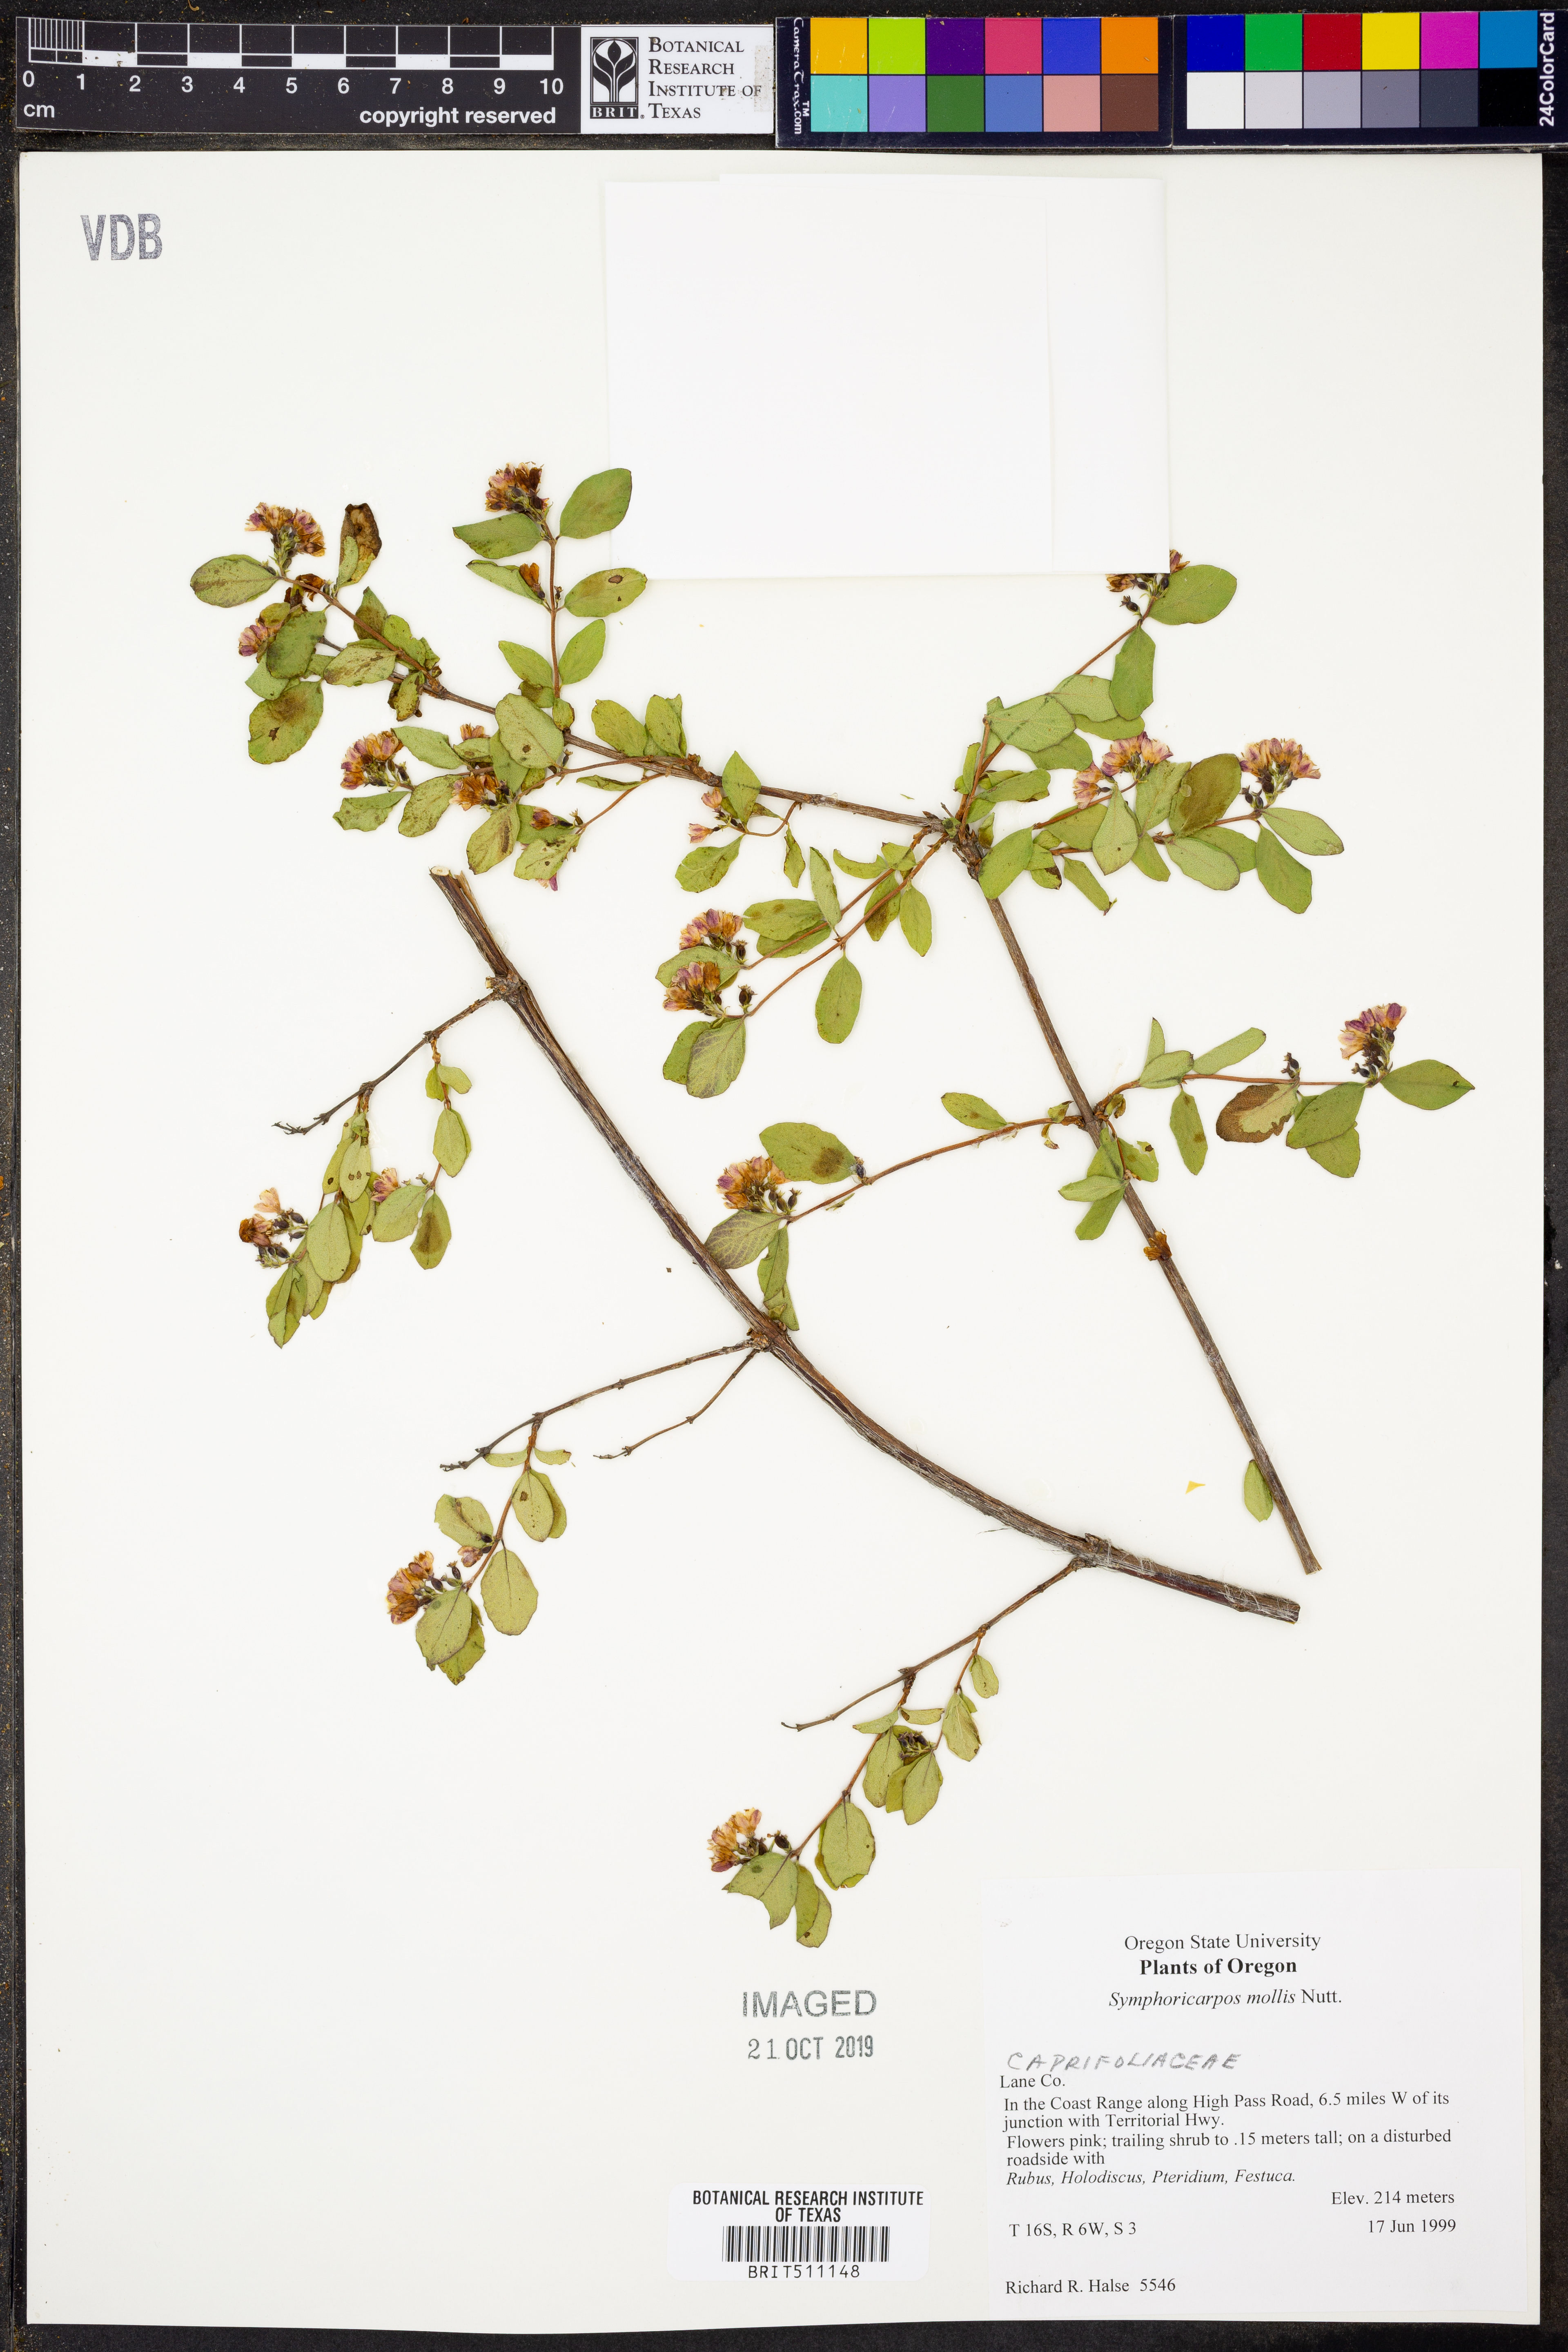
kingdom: Plantae
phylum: Tracheophyta
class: Magnoliopsida
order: Dipsacales
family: Caprifoliaceae
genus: Symphoricarpos
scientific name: Symphoricarpos mollis
